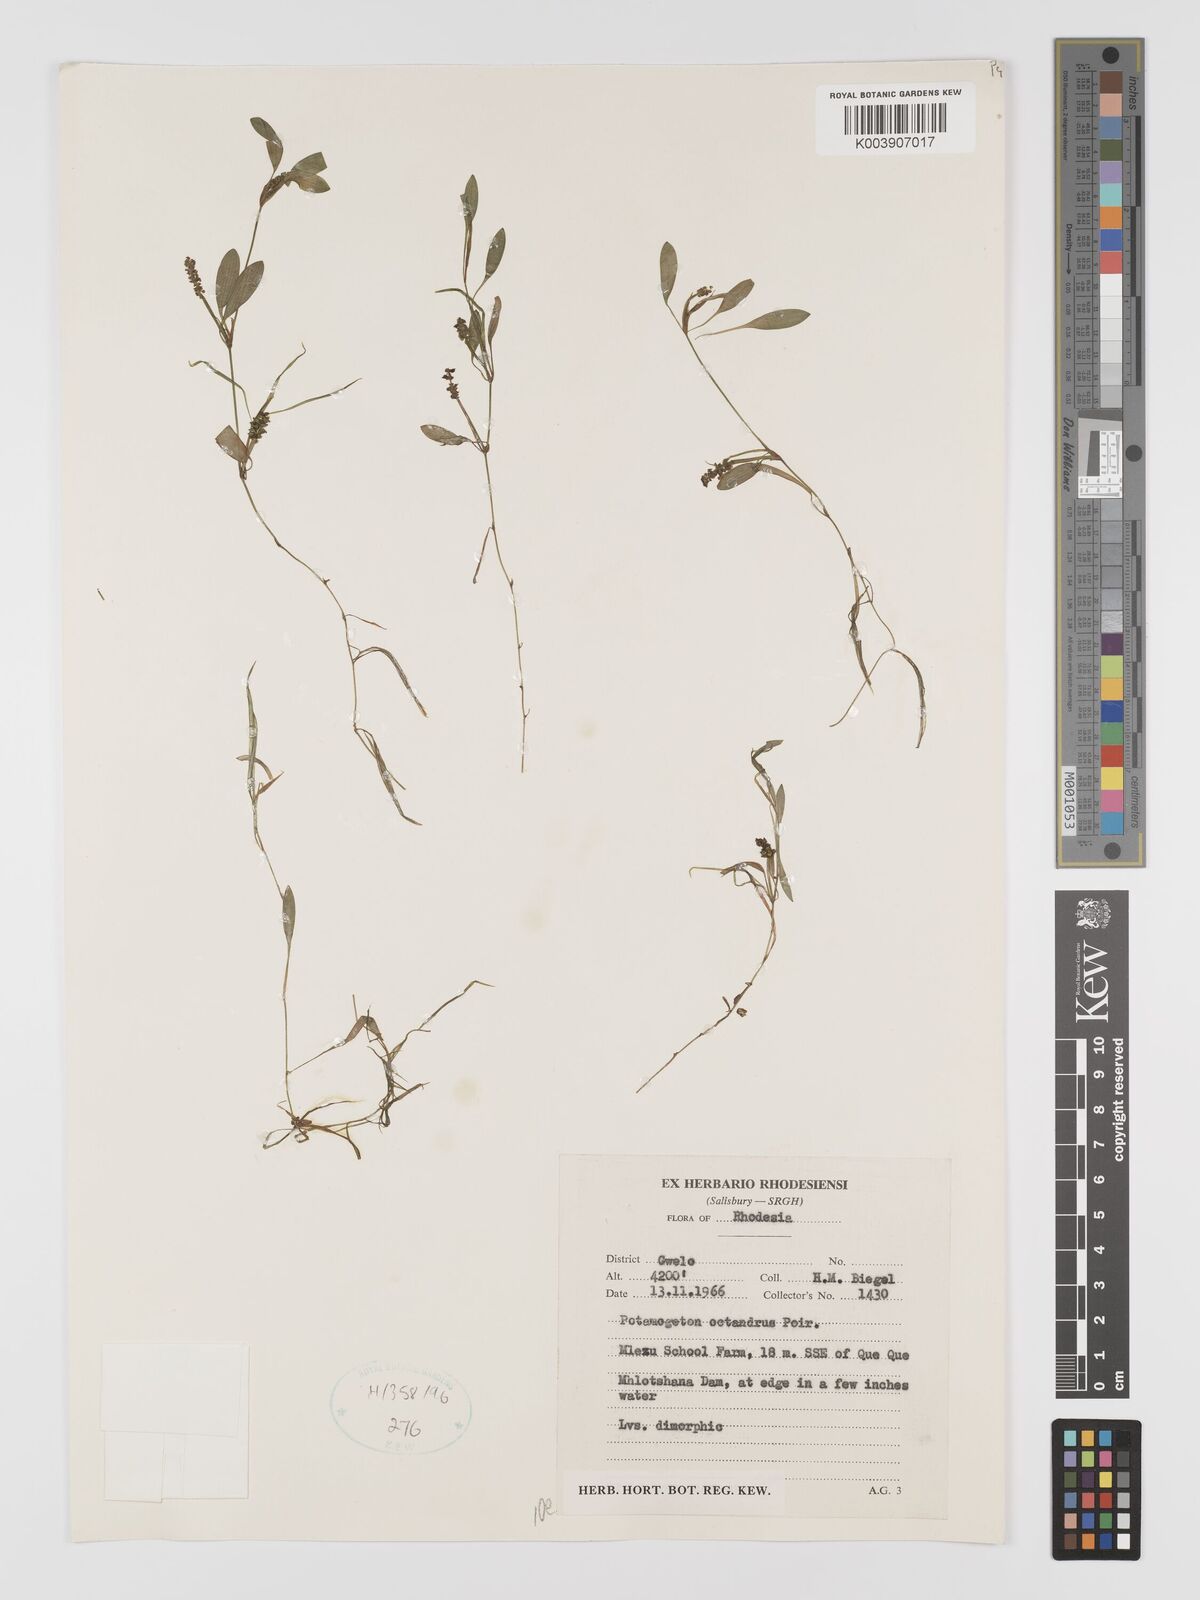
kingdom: Plantae
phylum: Tracheophyta
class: Liliopsida
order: Alismatales
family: Potamogetonaceae
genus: Potamogeton
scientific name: Potamogeton octandrus
